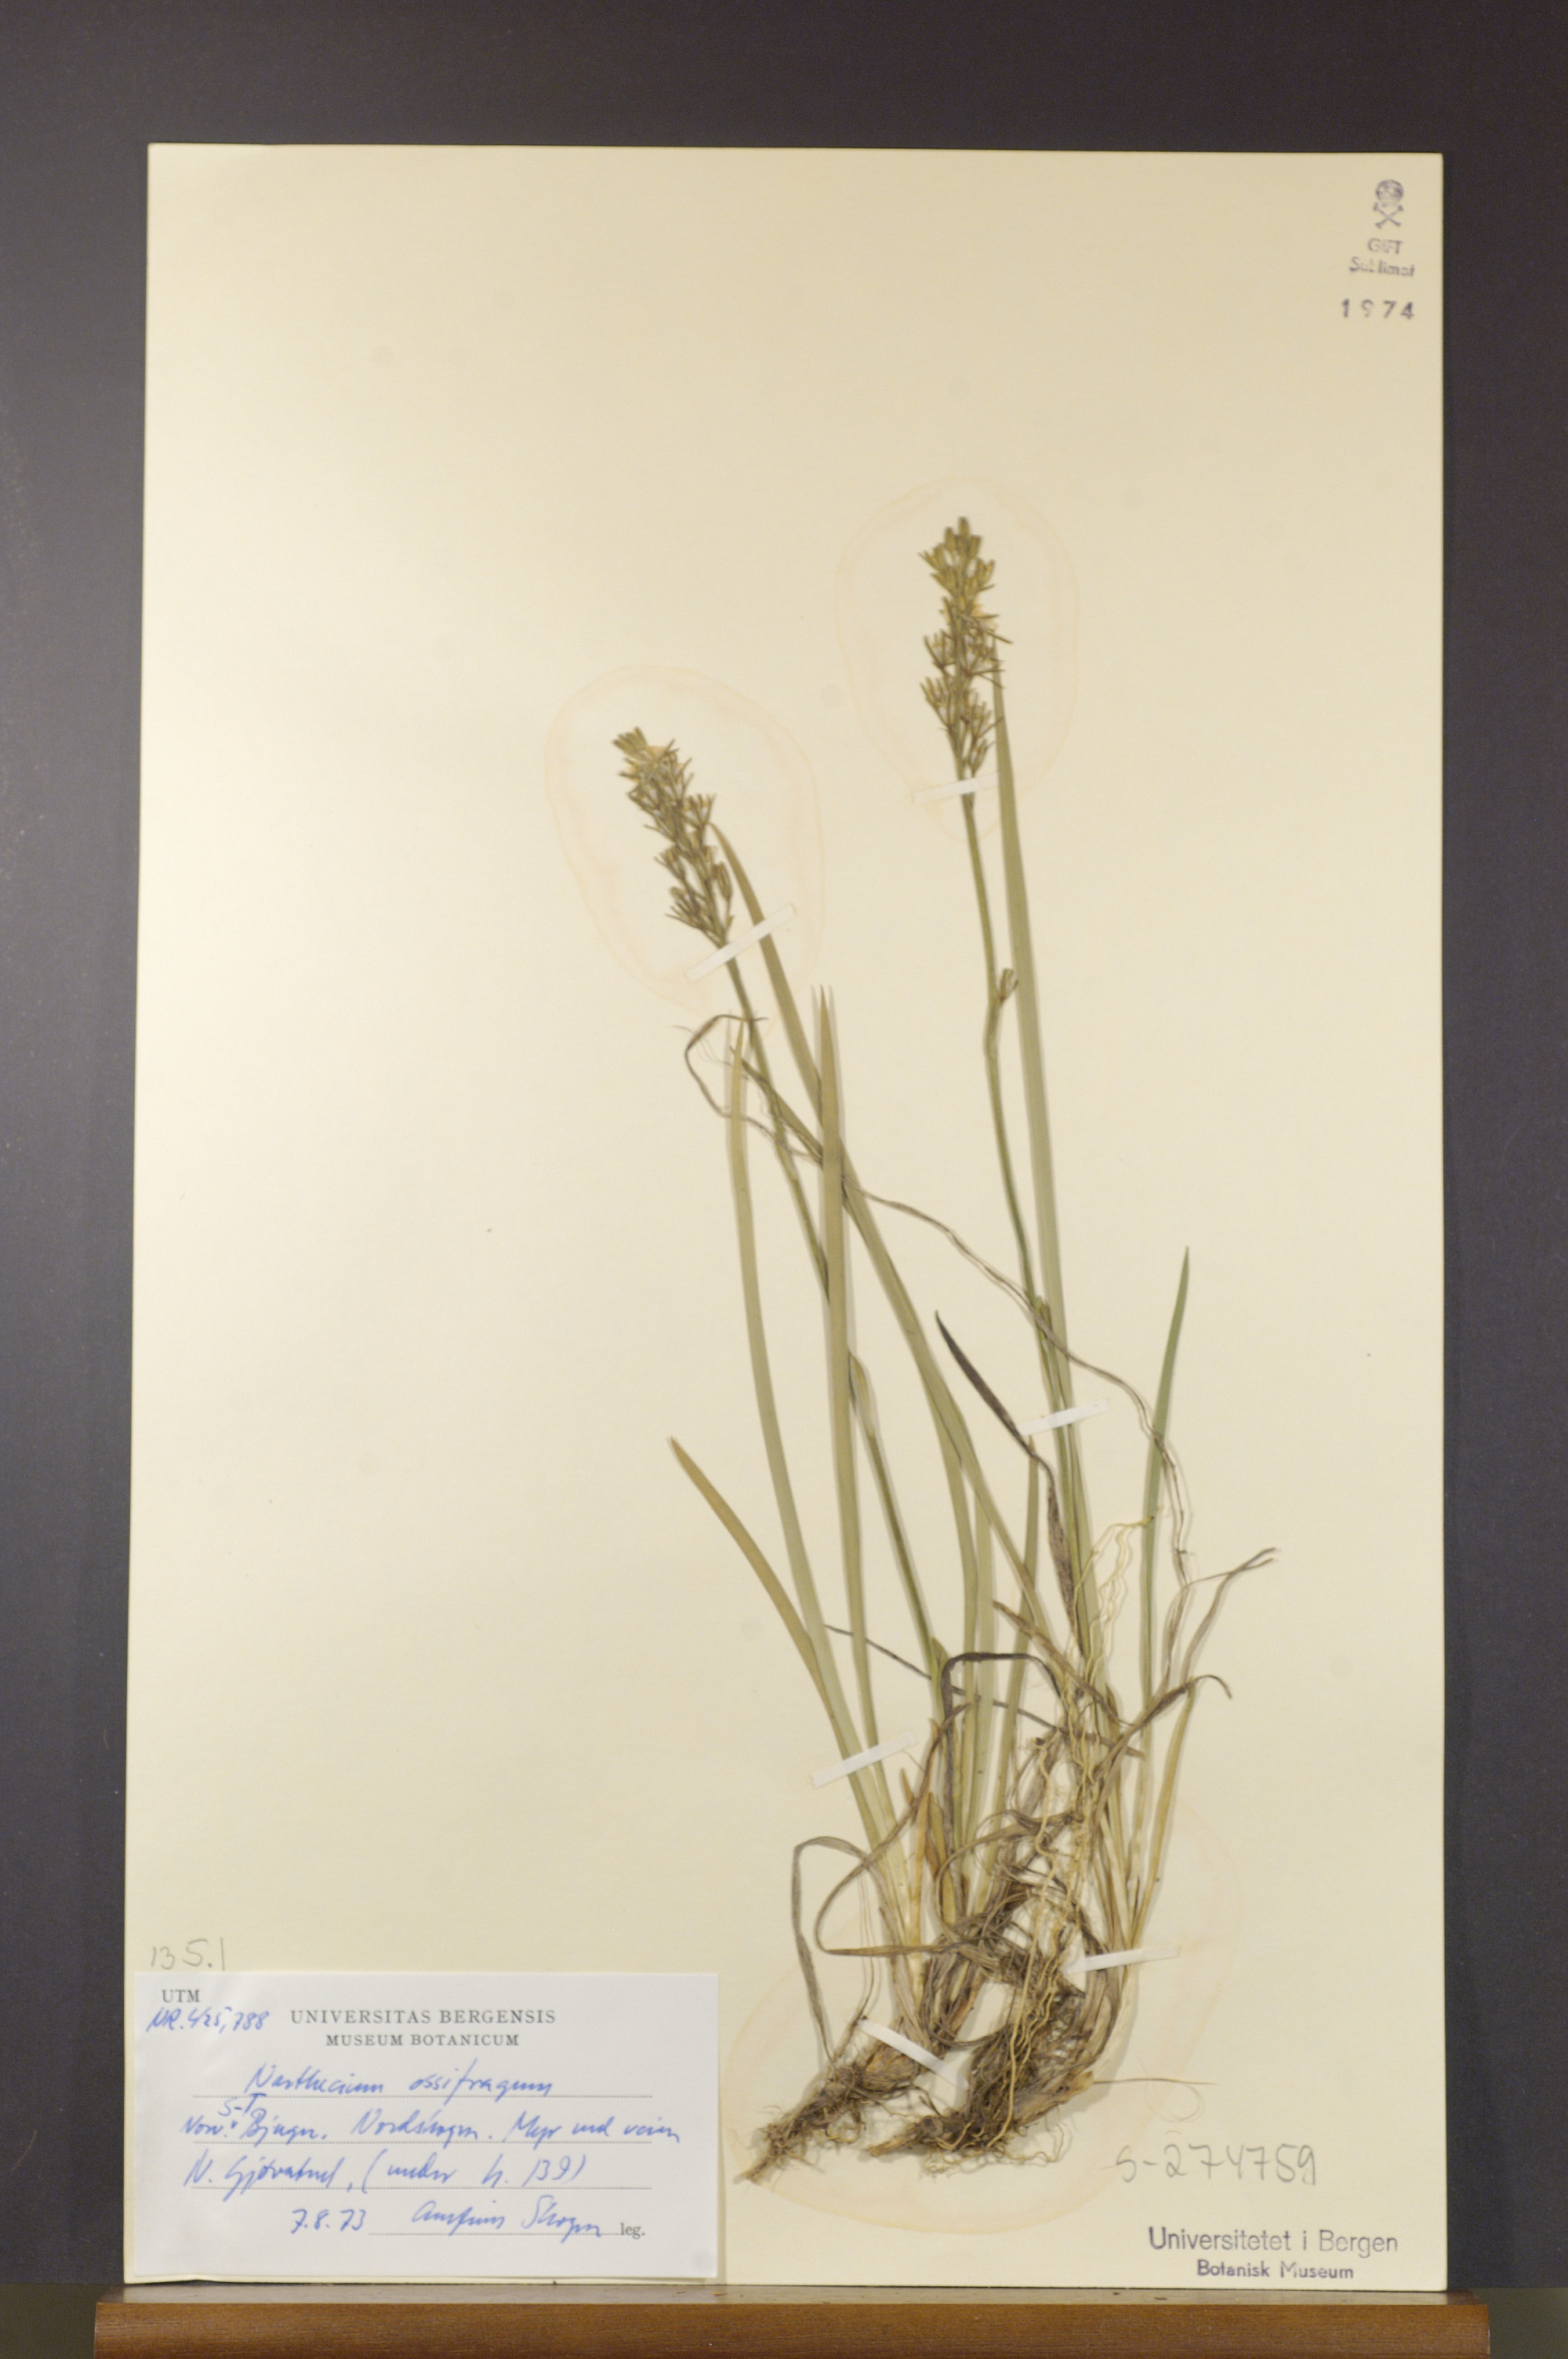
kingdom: Plantae
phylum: Tracheophyta
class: Liliopsida
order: Dioscoreales
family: Nartheciaceae
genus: Narthecium
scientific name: Narthecium ossifragum
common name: Bog asphodel
